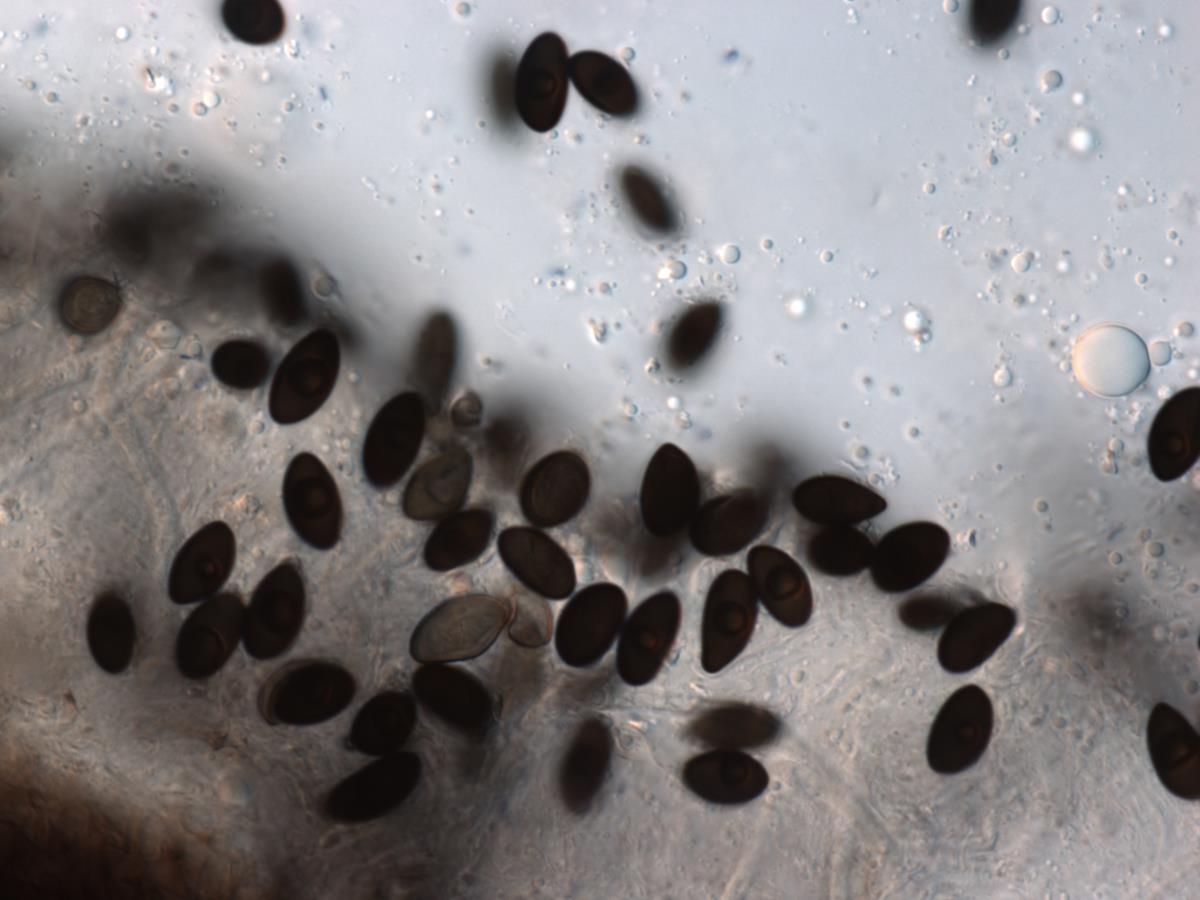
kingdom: Fungi
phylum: Ascomycota
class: Sordariomycetes
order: Xylariales
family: Xylariaceae
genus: Kretzschmaria
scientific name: Kretzschmaria
